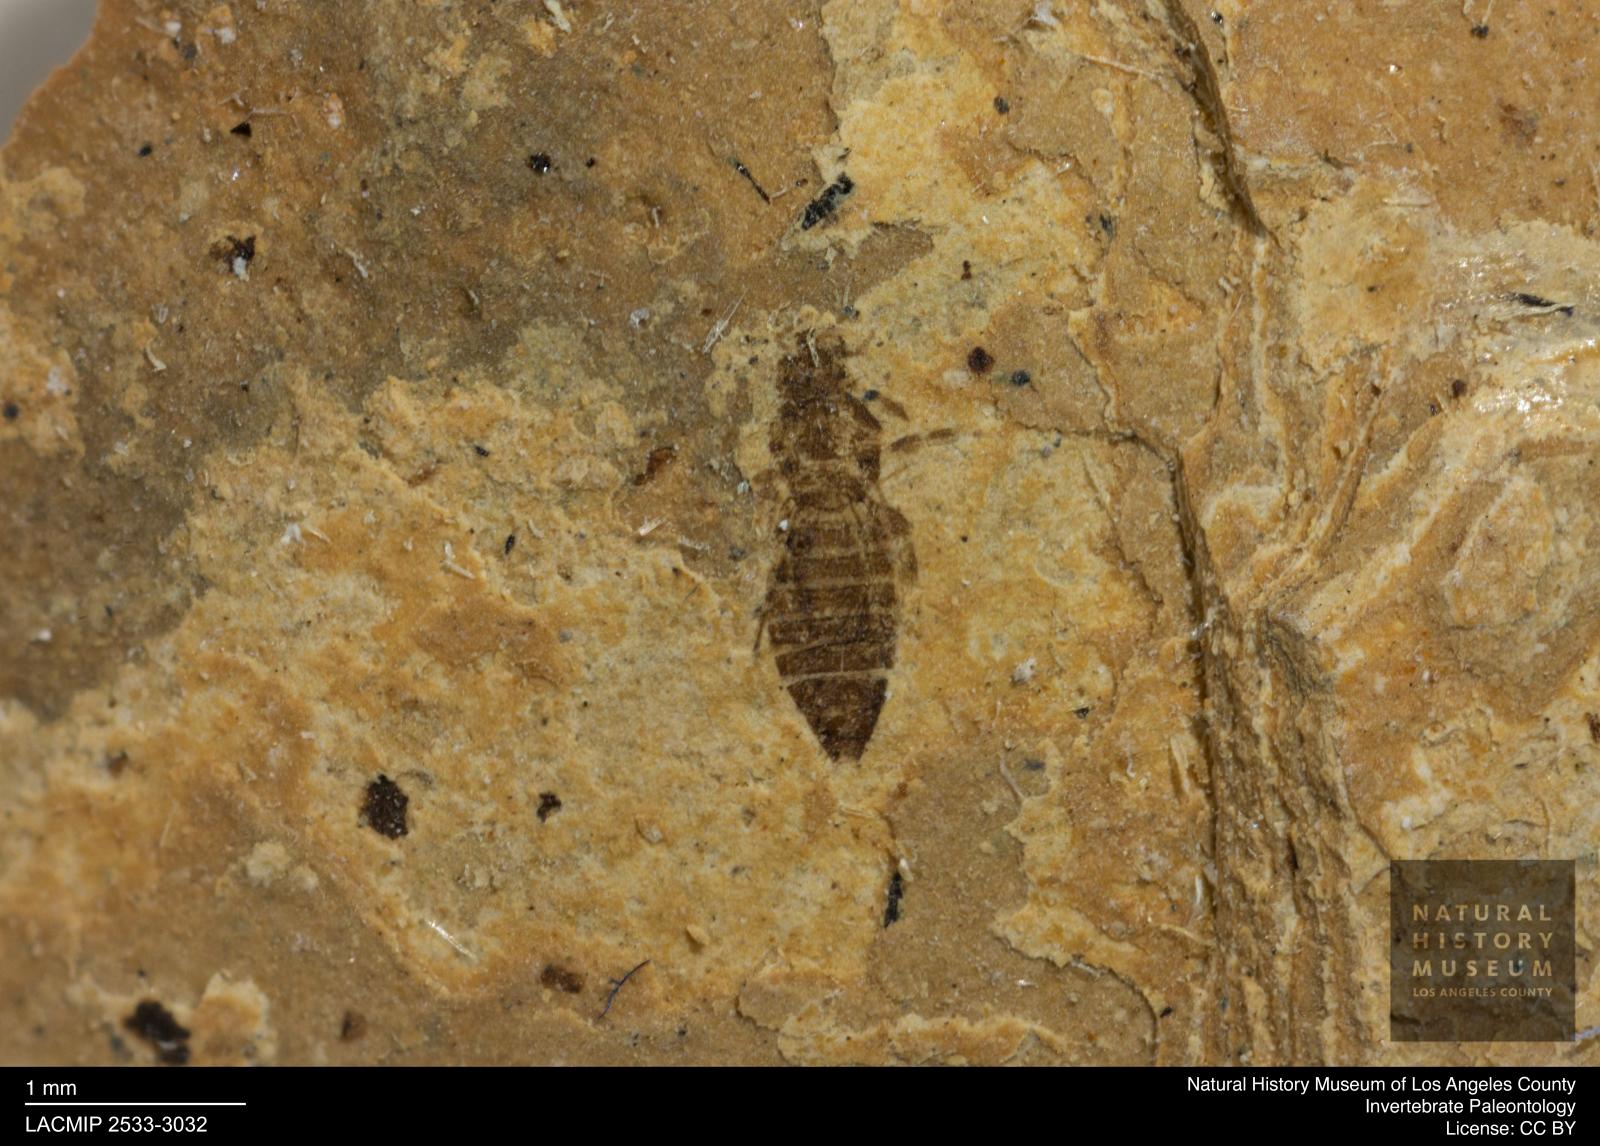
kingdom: Animalia
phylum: Arthropoda
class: Insecta
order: Thysanoptera
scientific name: Thysanoptera
